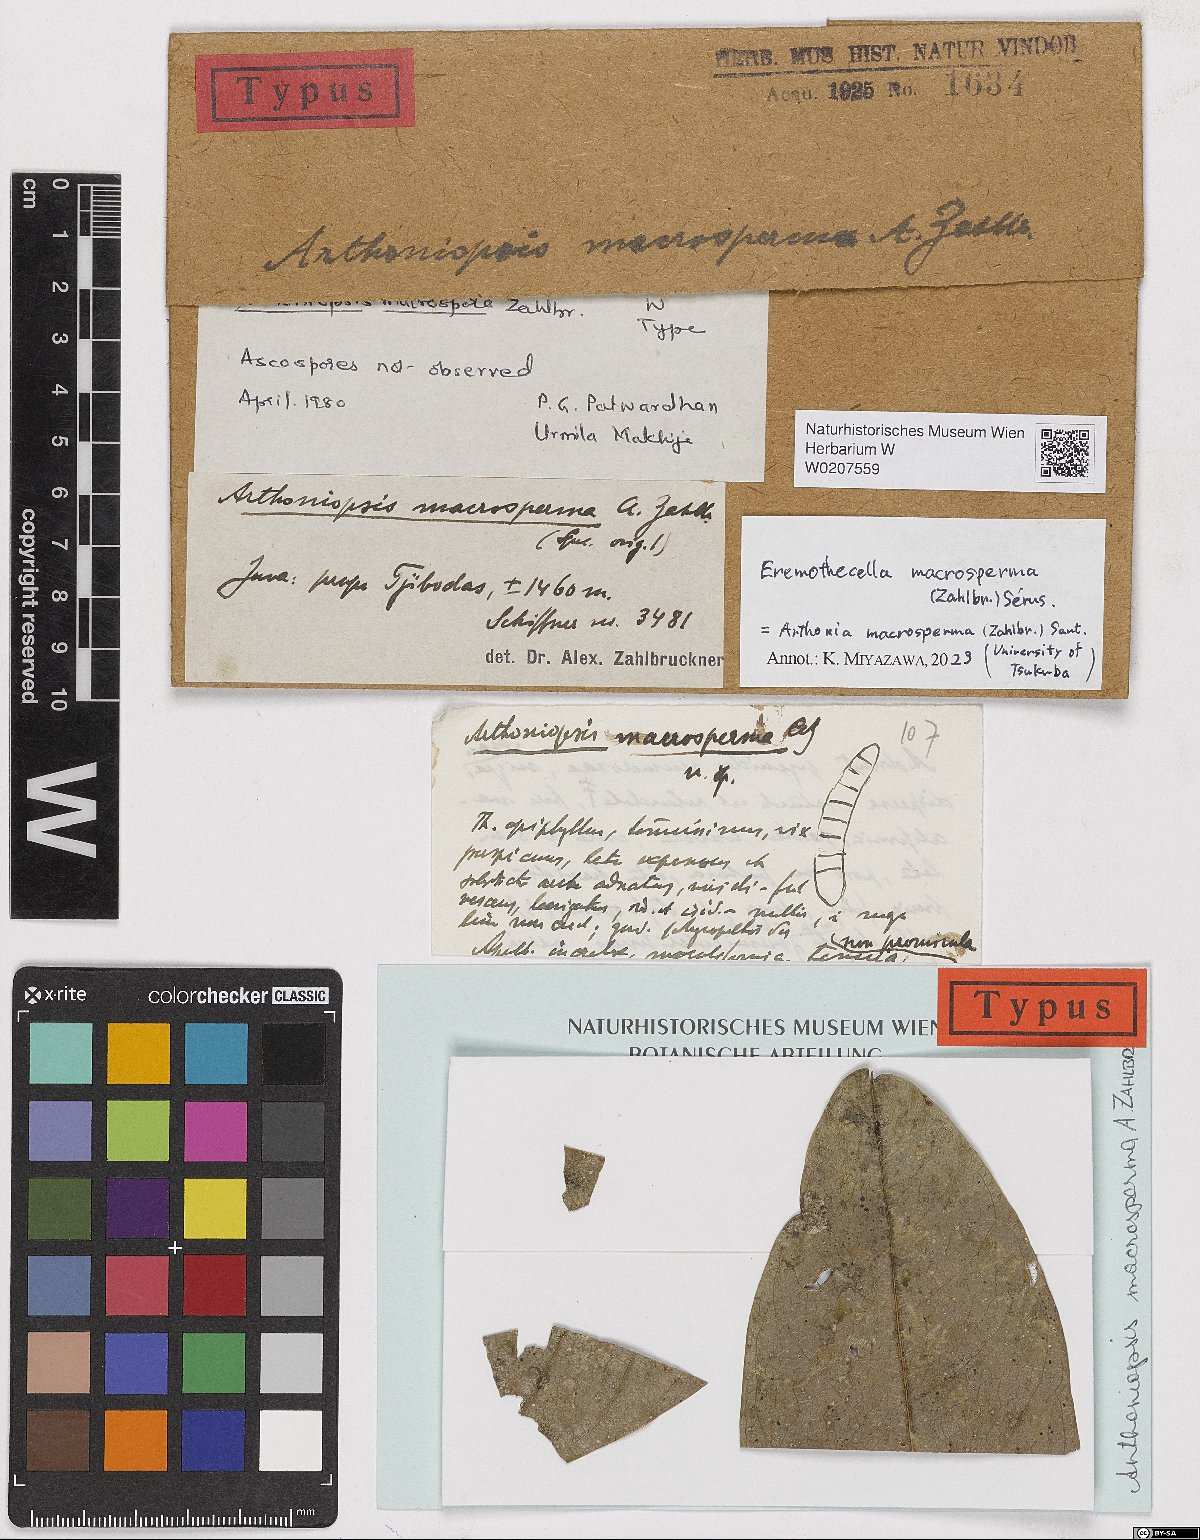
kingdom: Fungi
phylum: Ascomycota
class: Arthoniomycetes
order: Arthoniales
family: Arthoniaceae
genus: Arthoniopsis
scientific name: Arthoniopsis
